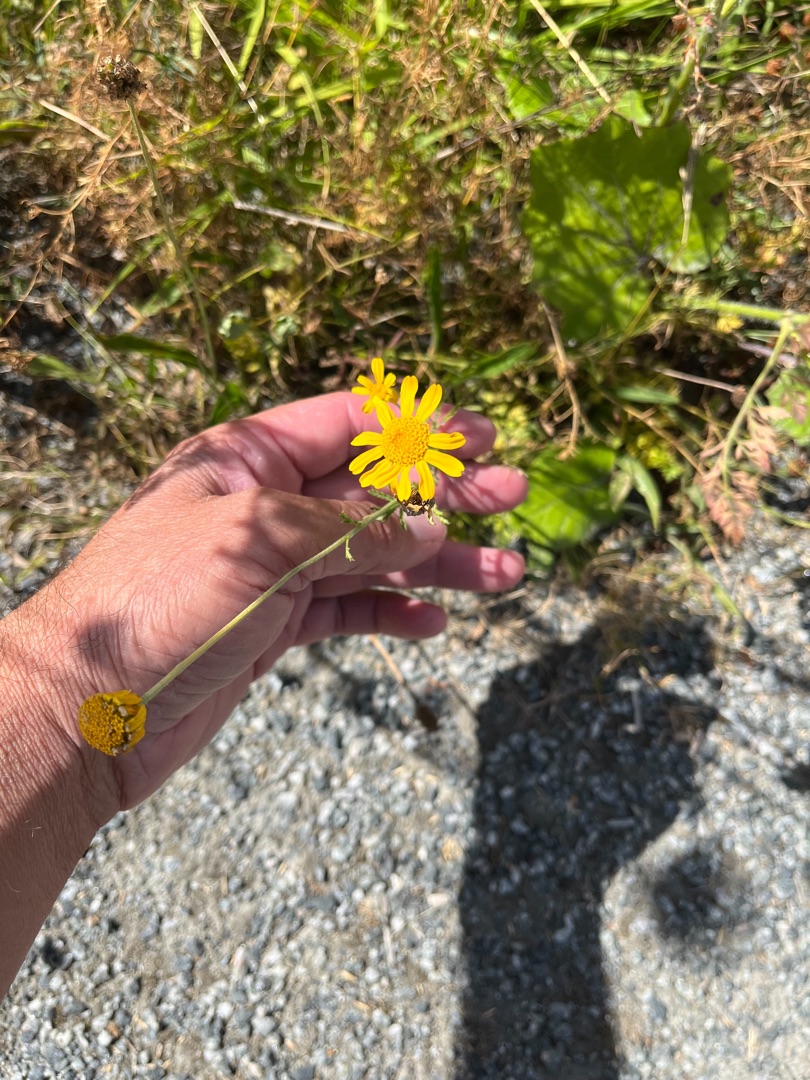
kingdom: Plantae
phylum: Tracheophyta
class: Magnoliopsida
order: Asterales
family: Asteraceae
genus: Cota
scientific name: Cota tinctoria
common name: Farve-gåseurt
